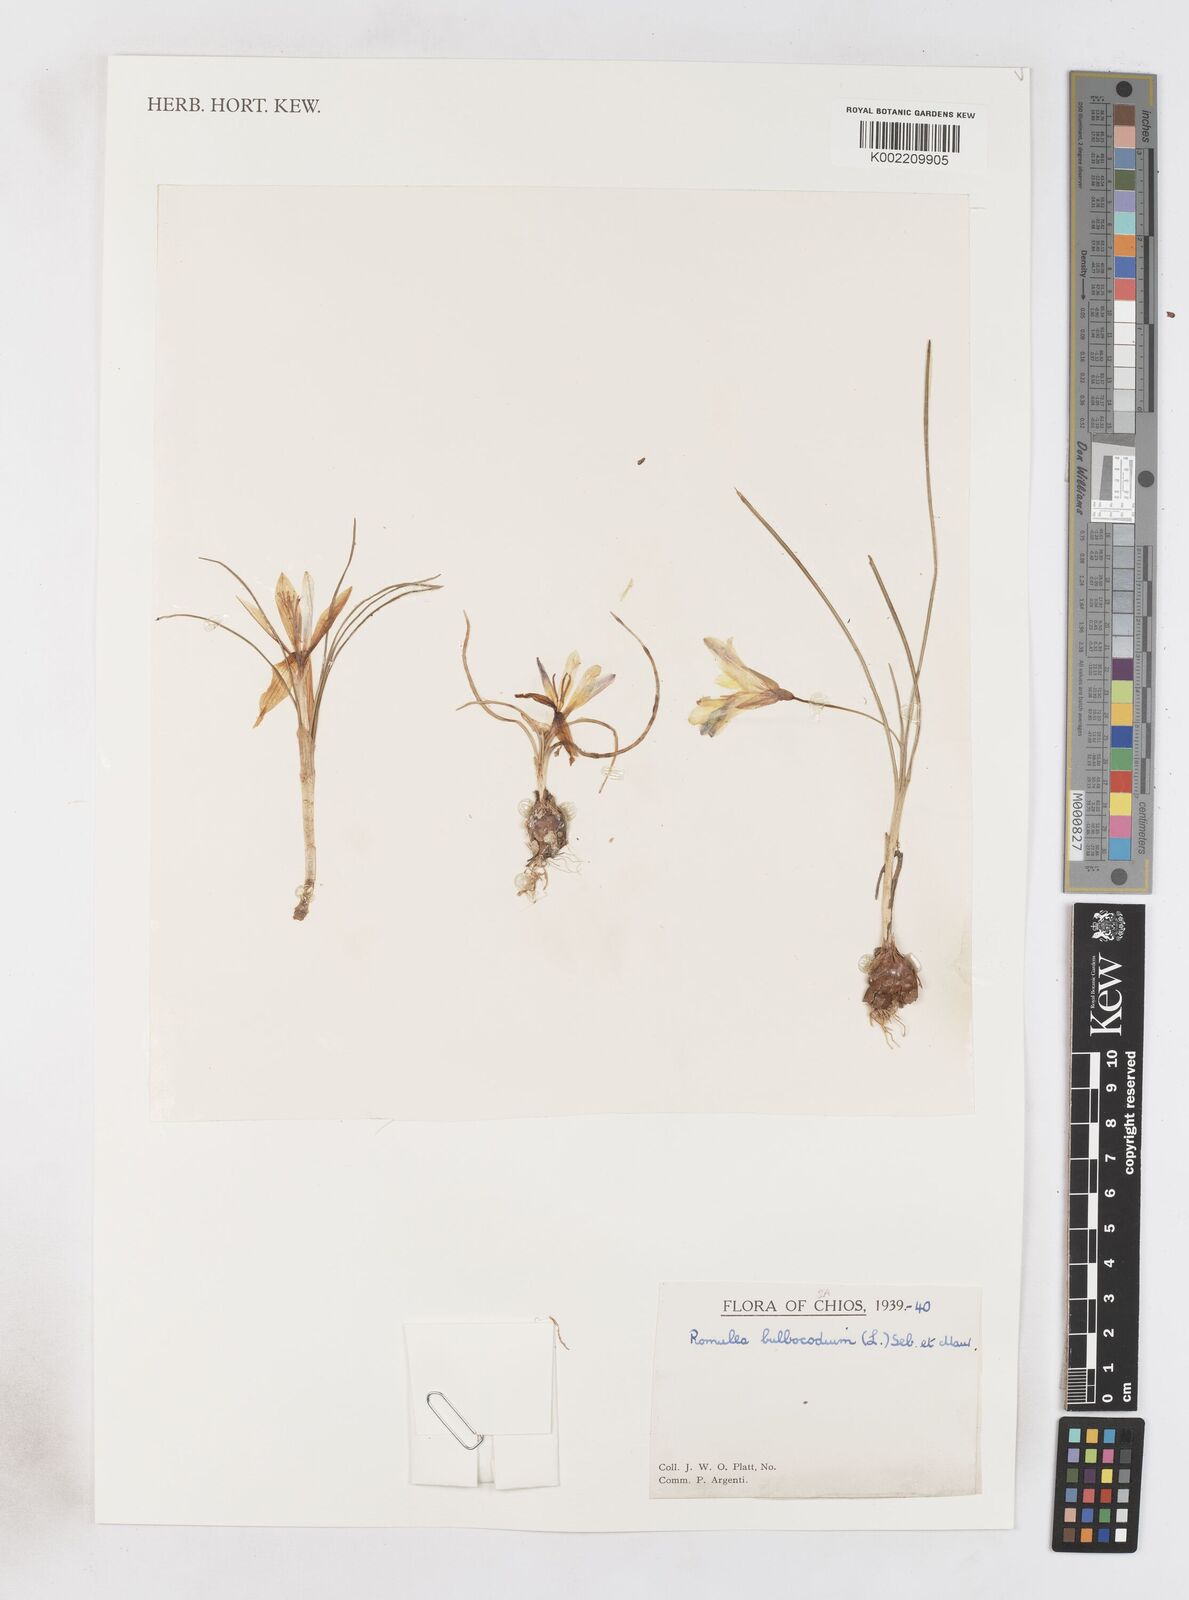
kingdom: Plantae
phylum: Tracheophyta
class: Liliopsida
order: Asparagales
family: Iridaceae
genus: Romulea
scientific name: Romulea bulbocodium
